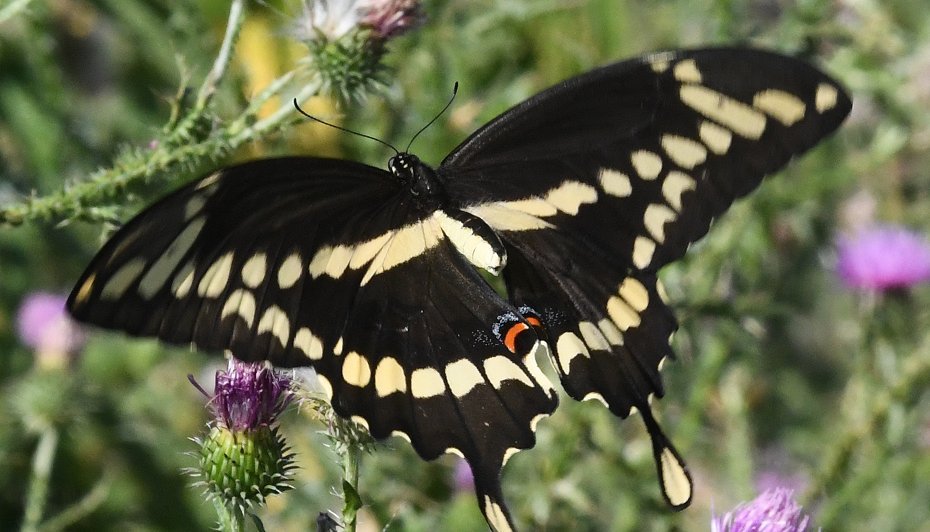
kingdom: Animalia
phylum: Arthropoda
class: Insecta
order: Lepidoptera
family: Papilionidae
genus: Papilio
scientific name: Papilio cresphontes
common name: Eastern Giant Swallowtail
